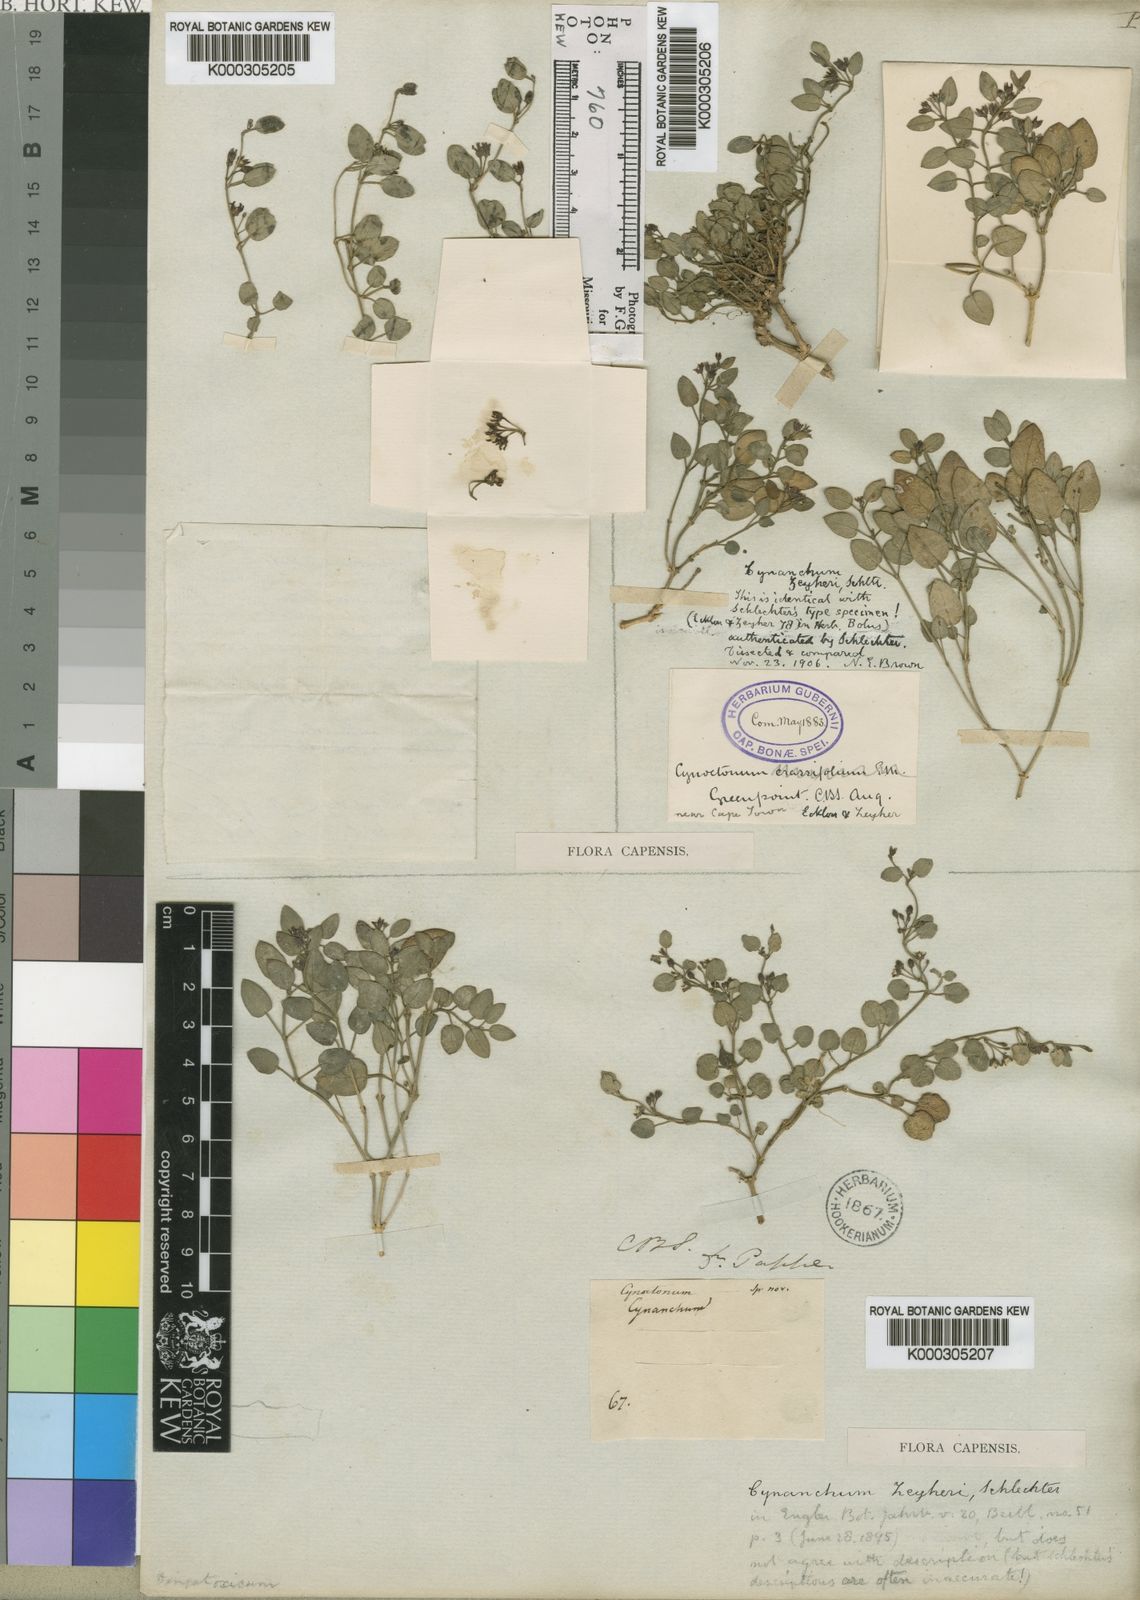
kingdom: Plantae
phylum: Tracheophyta
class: Magnoliopsida
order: Gentianales
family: Apocynaceae
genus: Cynanchum
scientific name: Cynanchum zeyheri
